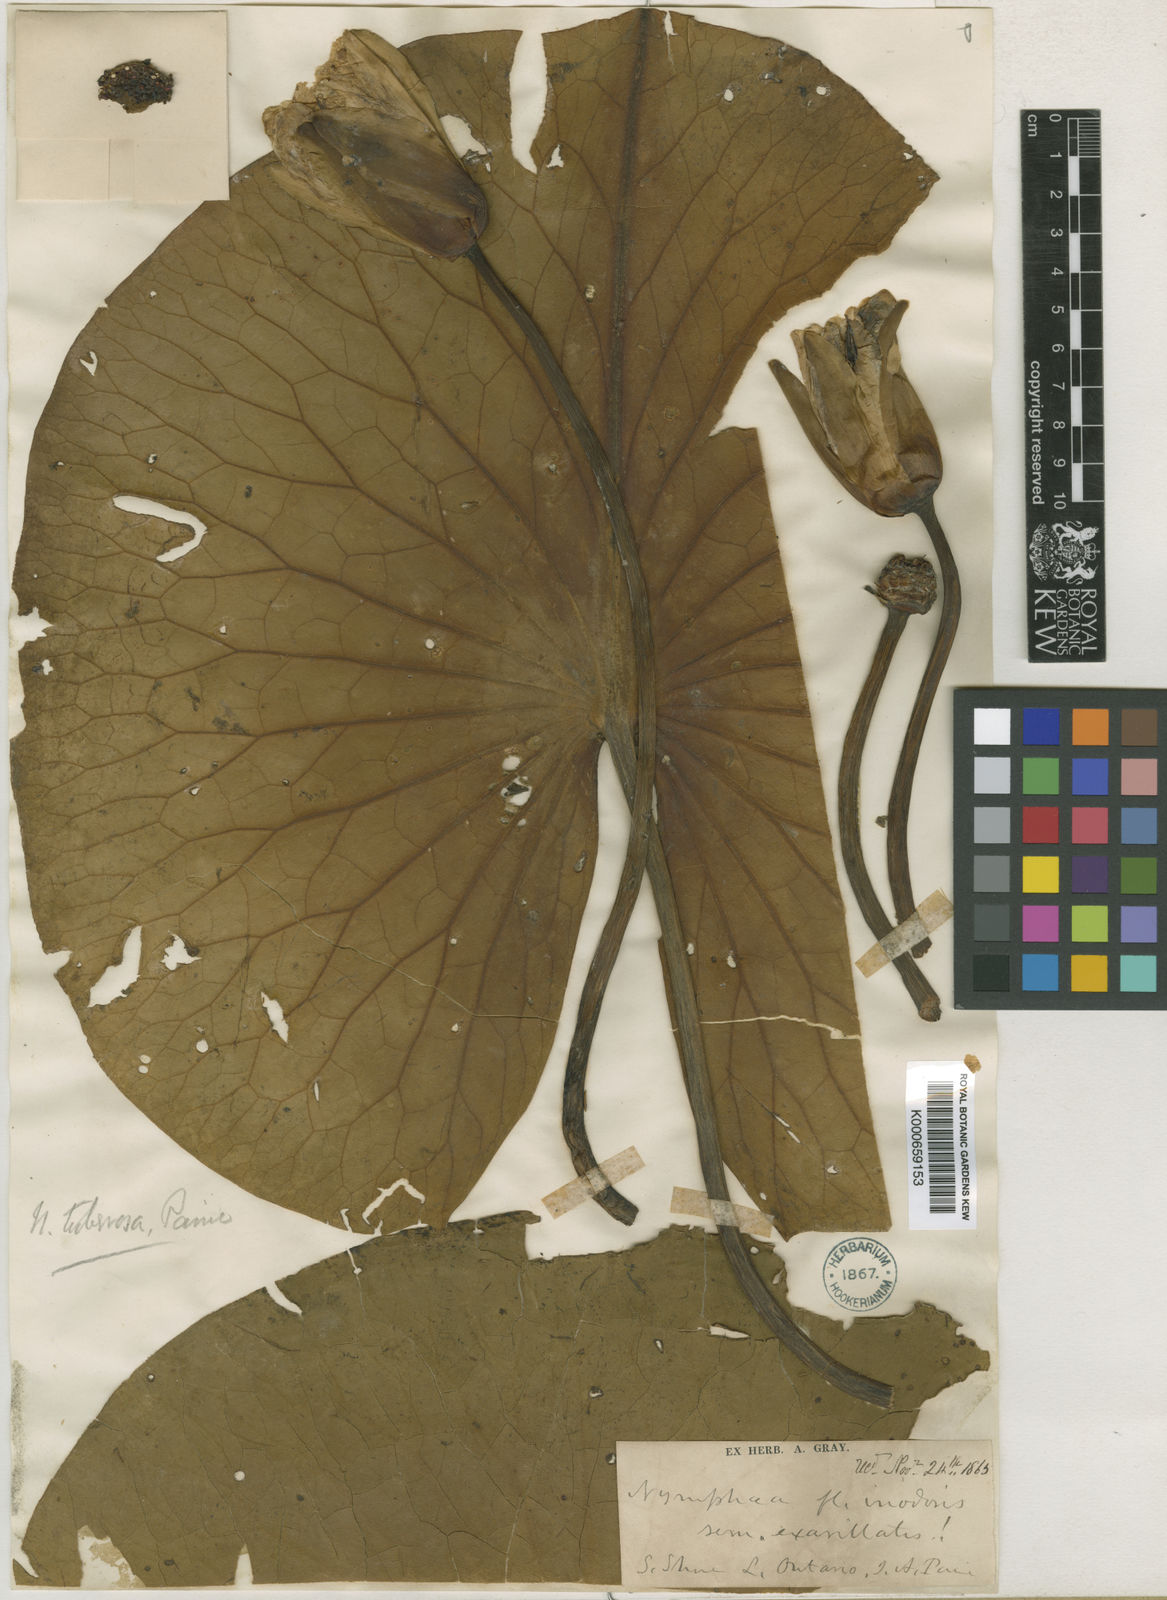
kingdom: Plantae
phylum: Tracheophyta
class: Magnoliopsida
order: Nymphaeales
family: Nymphaeaceae
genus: Nymphaea
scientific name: Nymphaea odorata
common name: Fragrant water-lily
